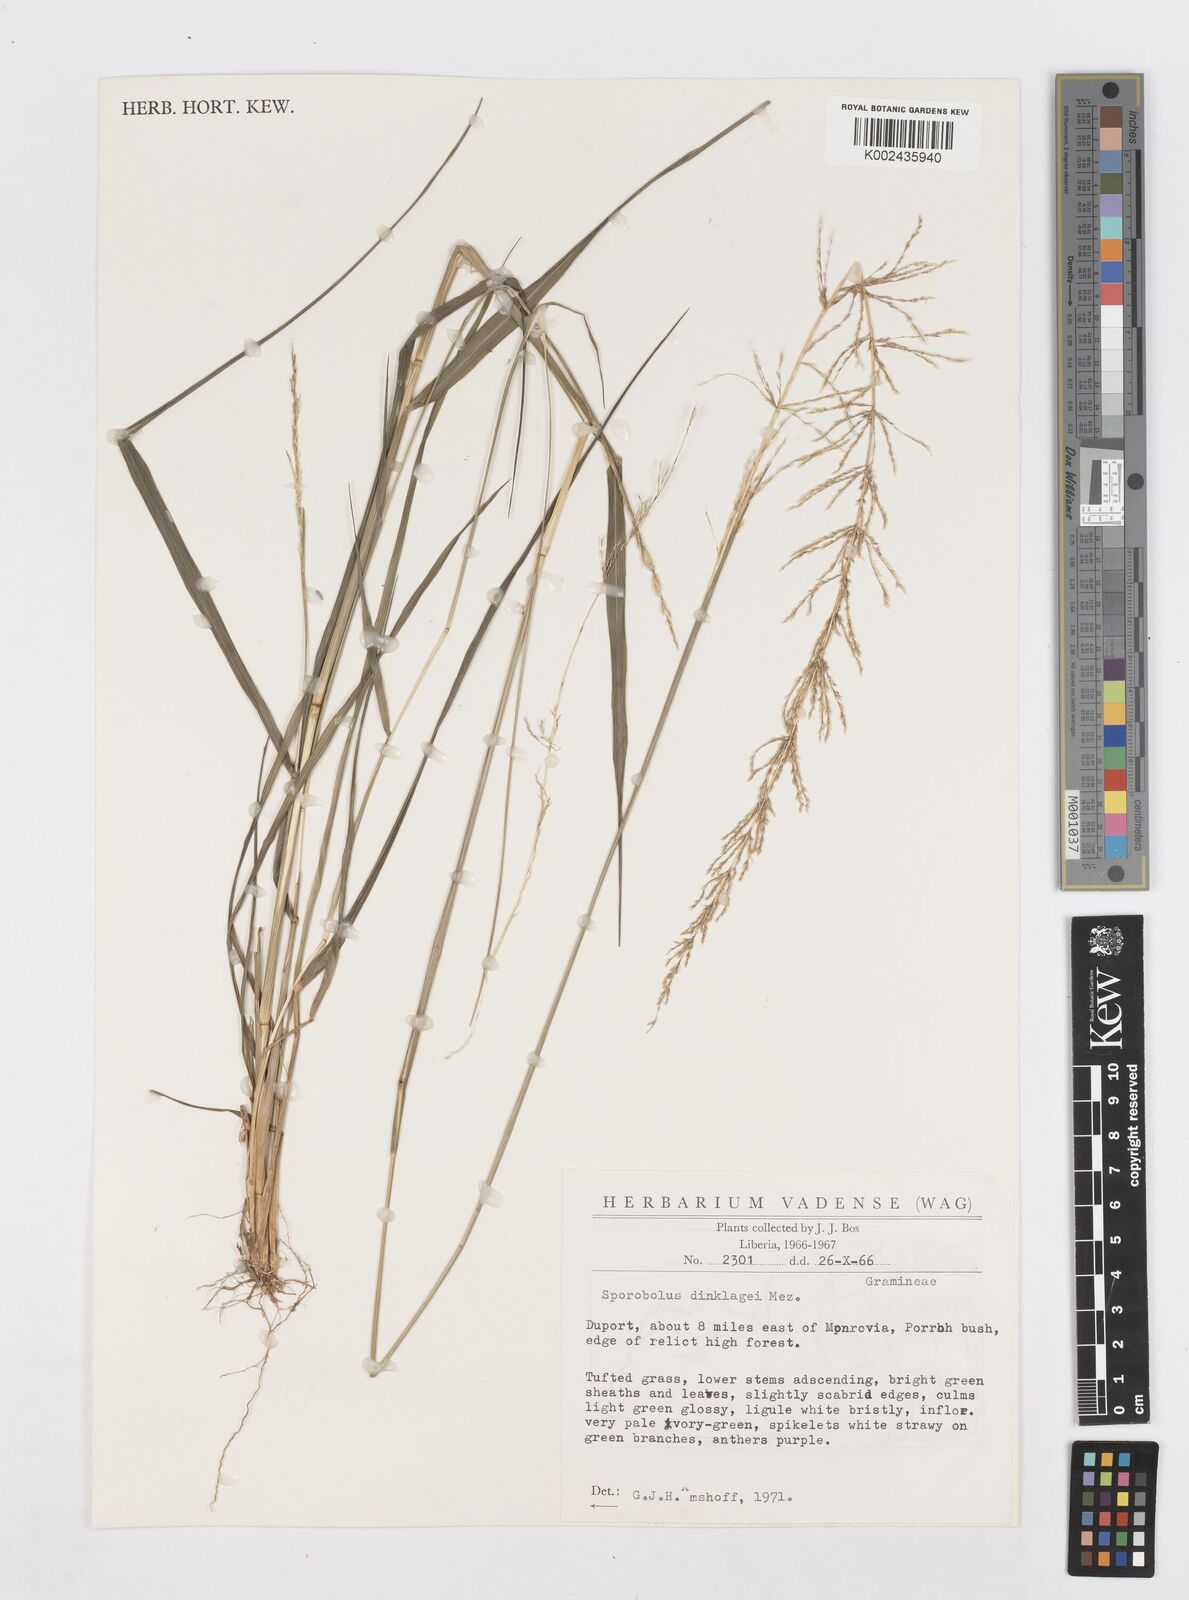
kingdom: Plantae
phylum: Tracheophyta
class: Liliopsida
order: Poales
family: Poaceae
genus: Sporobolus
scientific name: Sporobolus dinklagei
